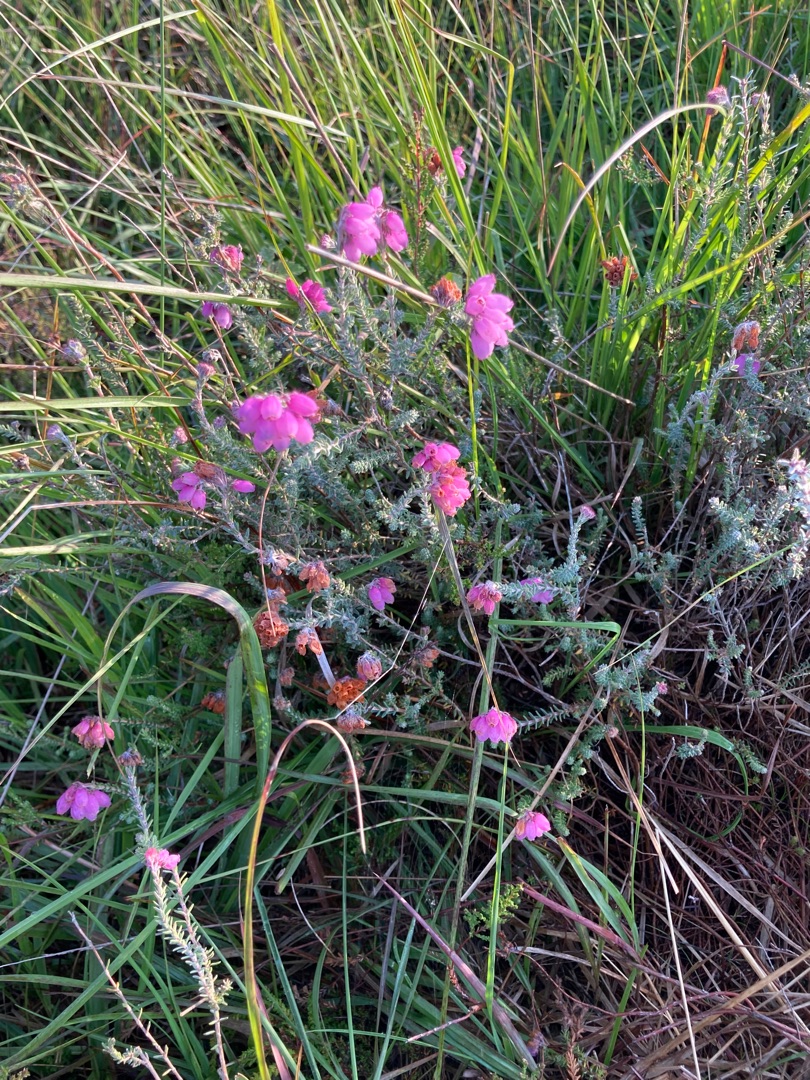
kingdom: Plantae
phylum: Tracheophyta
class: Magnoliopsida
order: Ericales
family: Ericaceae
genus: Erica
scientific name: Erica tetralix
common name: Klokkelyng
